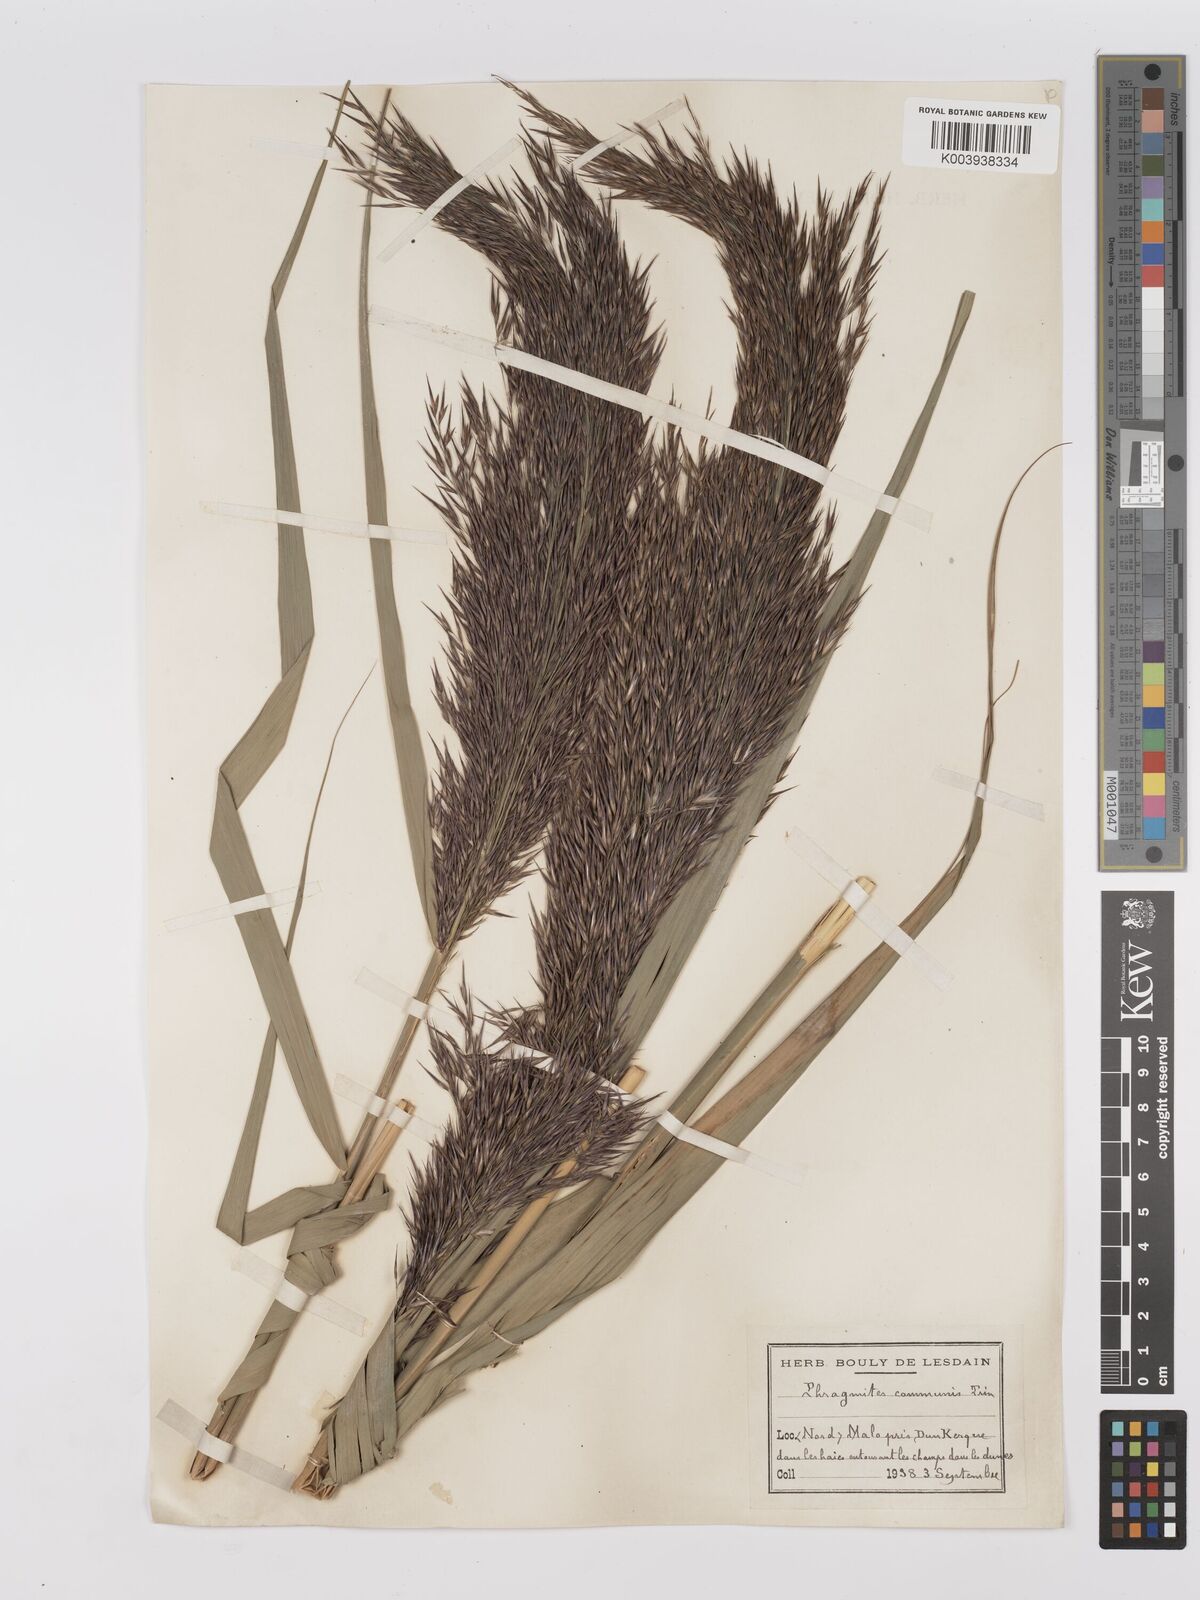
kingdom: Plantae
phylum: Tracheophyta
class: Liliopsida
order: Poales
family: Poaceae
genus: Phragmites
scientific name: Phragmites australis
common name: Common reed
